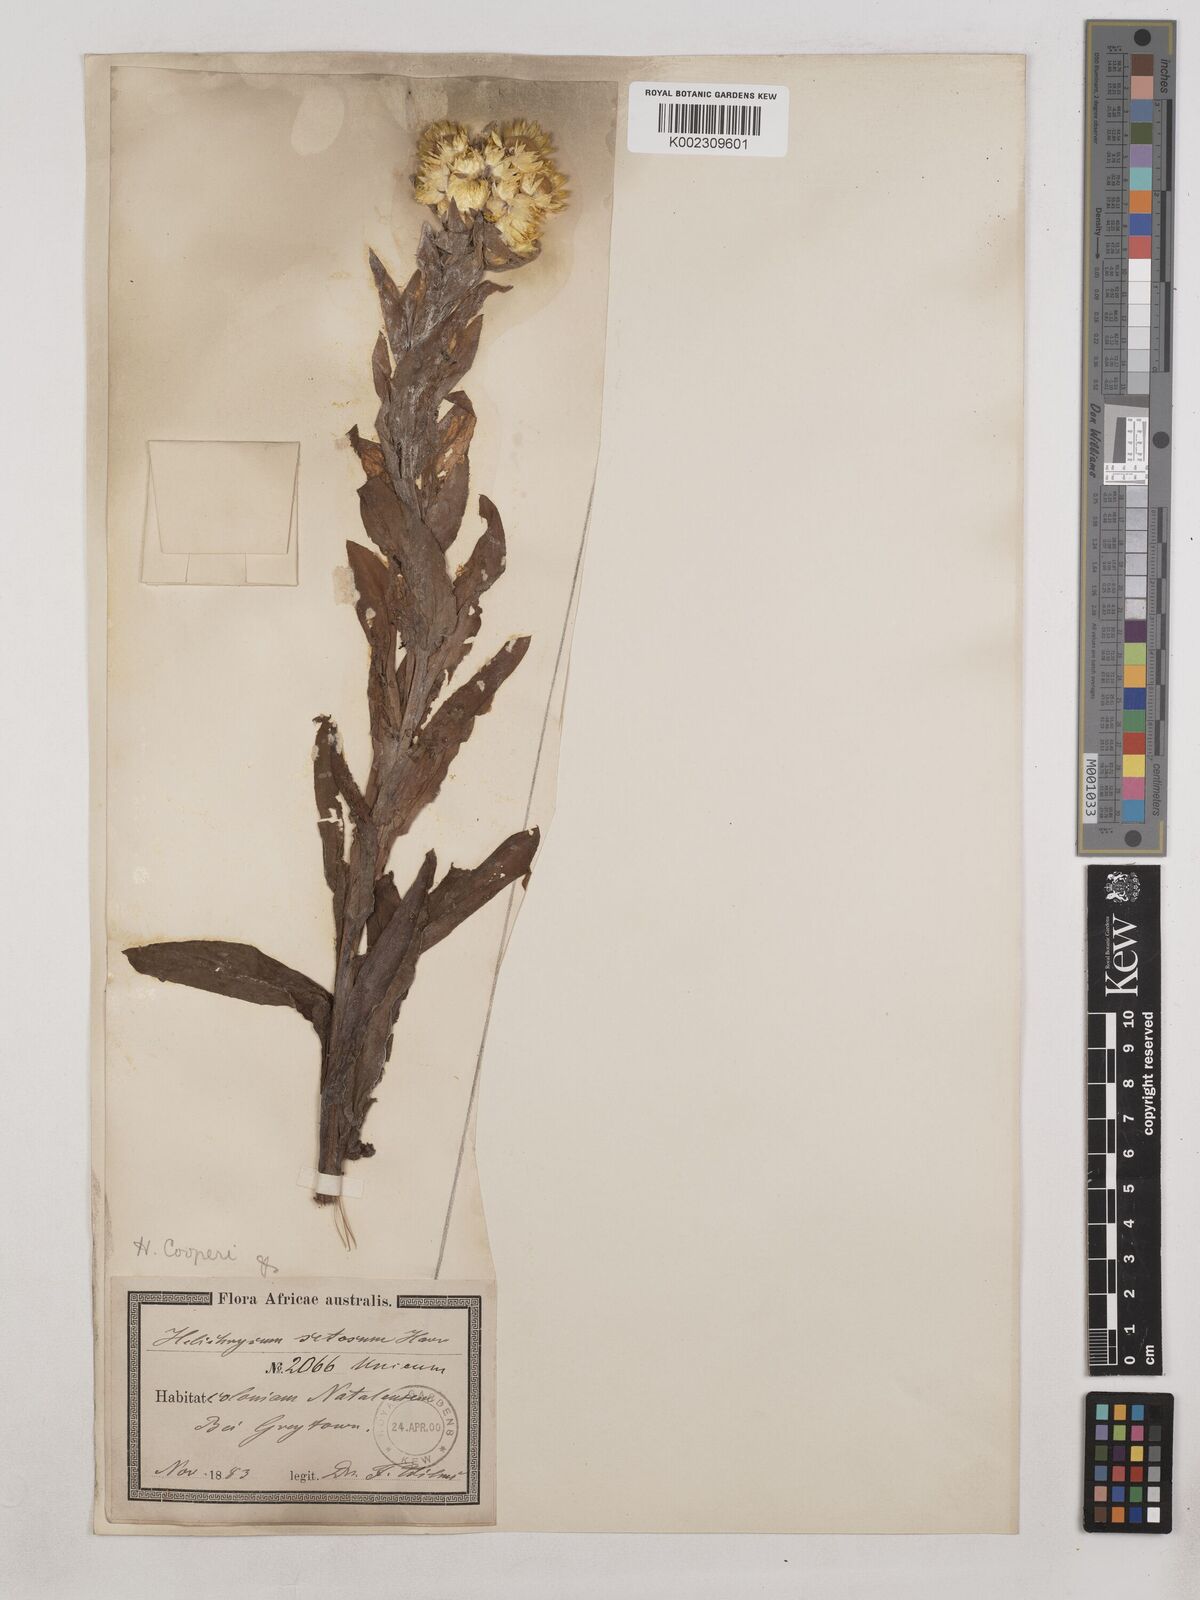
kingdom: Plantae
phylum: Tracheophyta
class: Magnoliopsida
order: Asterales
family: Asteraceae
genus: Helichrysum
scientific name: Helichrysum cooperi
